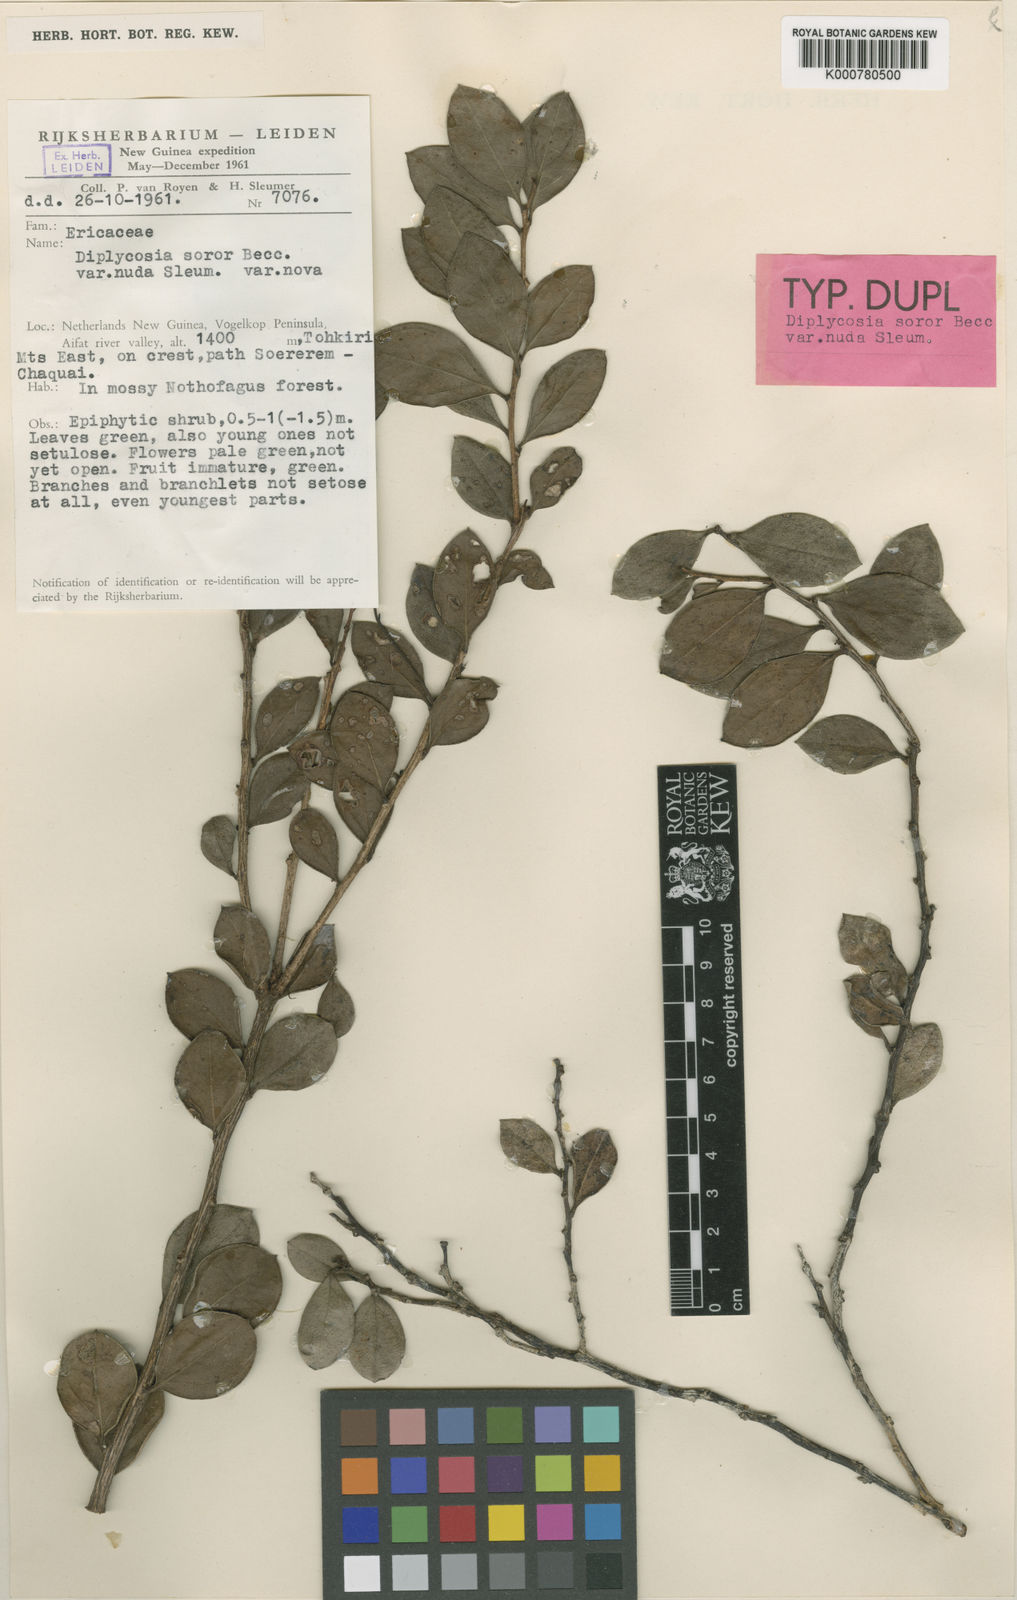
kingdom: Plantae
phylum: Tracheophyta
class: Magnoliopsida
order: Ericales
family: Ericaceae
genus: Gaultheria
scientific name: Gaultheria soror
